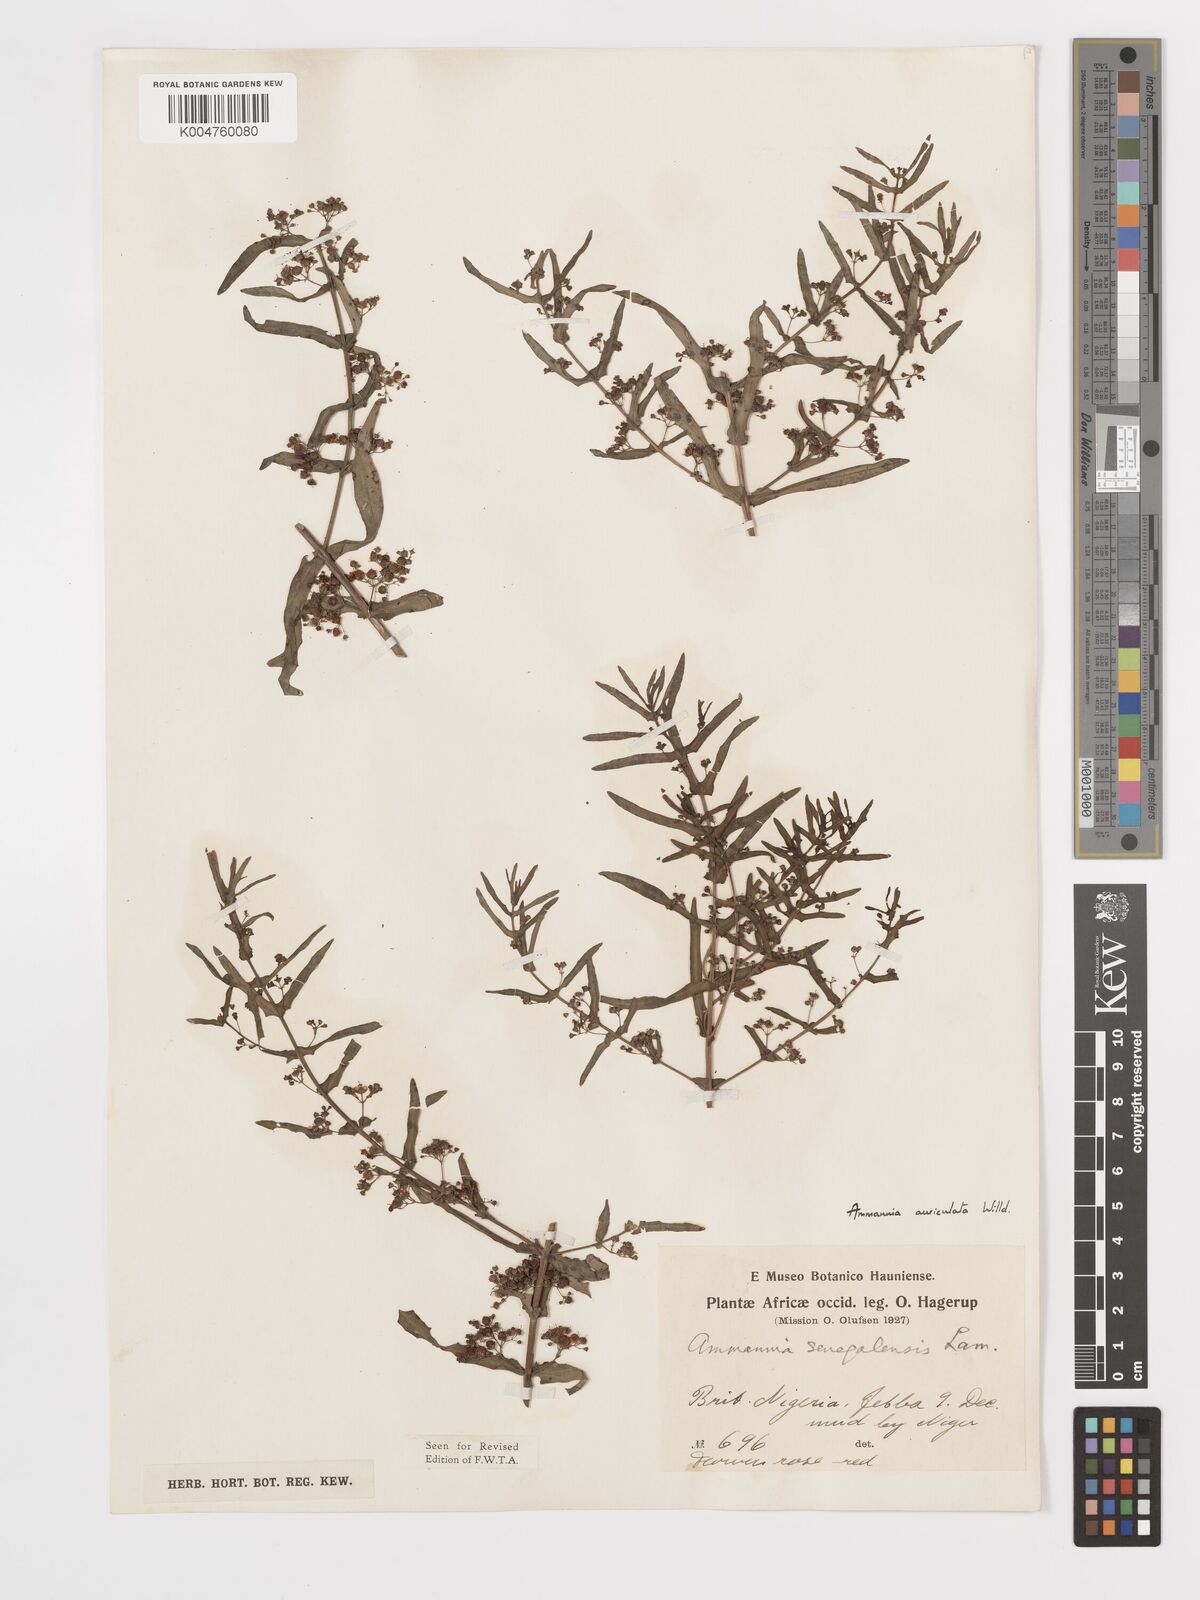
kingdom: Plantae
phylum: Tracheophyta
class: Magnoliopsida
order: Myrtales
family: Lythraceae
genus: Ammannia
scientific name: Ammannia auriculata
